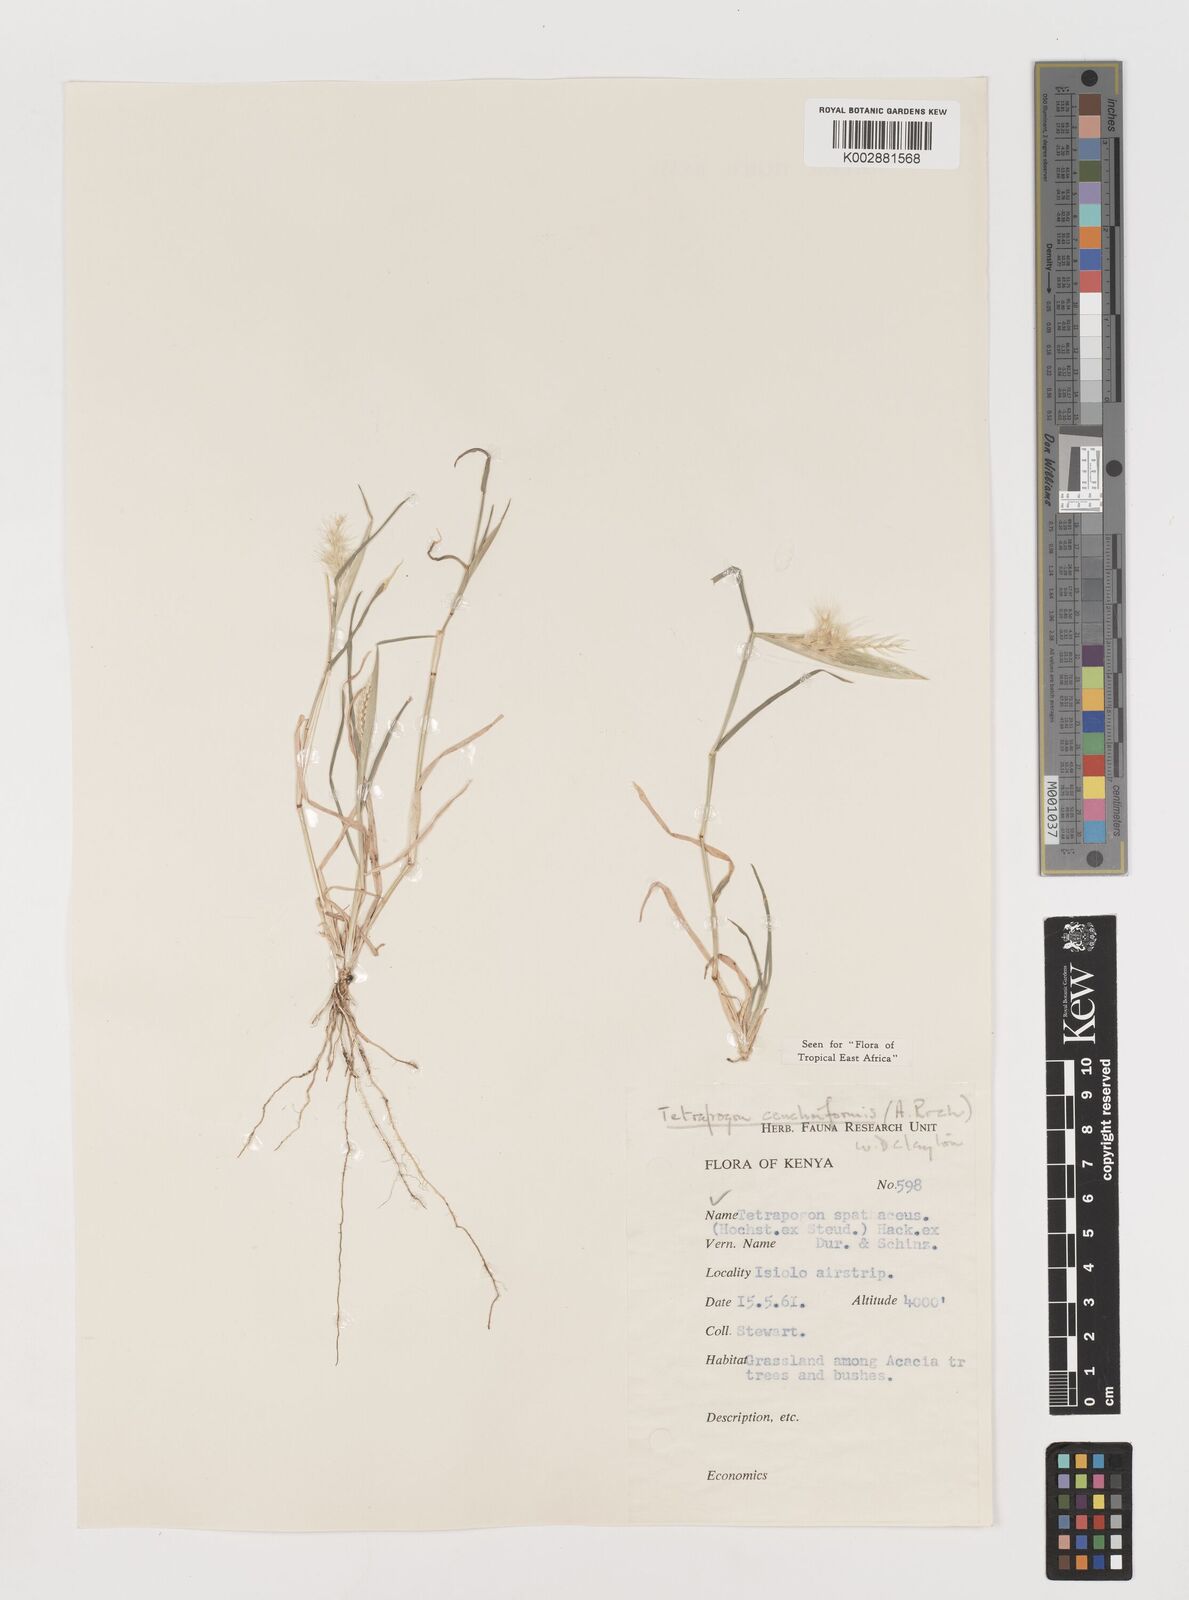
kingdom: Plantae
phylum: Tracheophyta
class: Liliopsida
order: Poales
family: Poaceae
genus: Tetrapogon
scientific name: Tetrapogon cenchriformis
